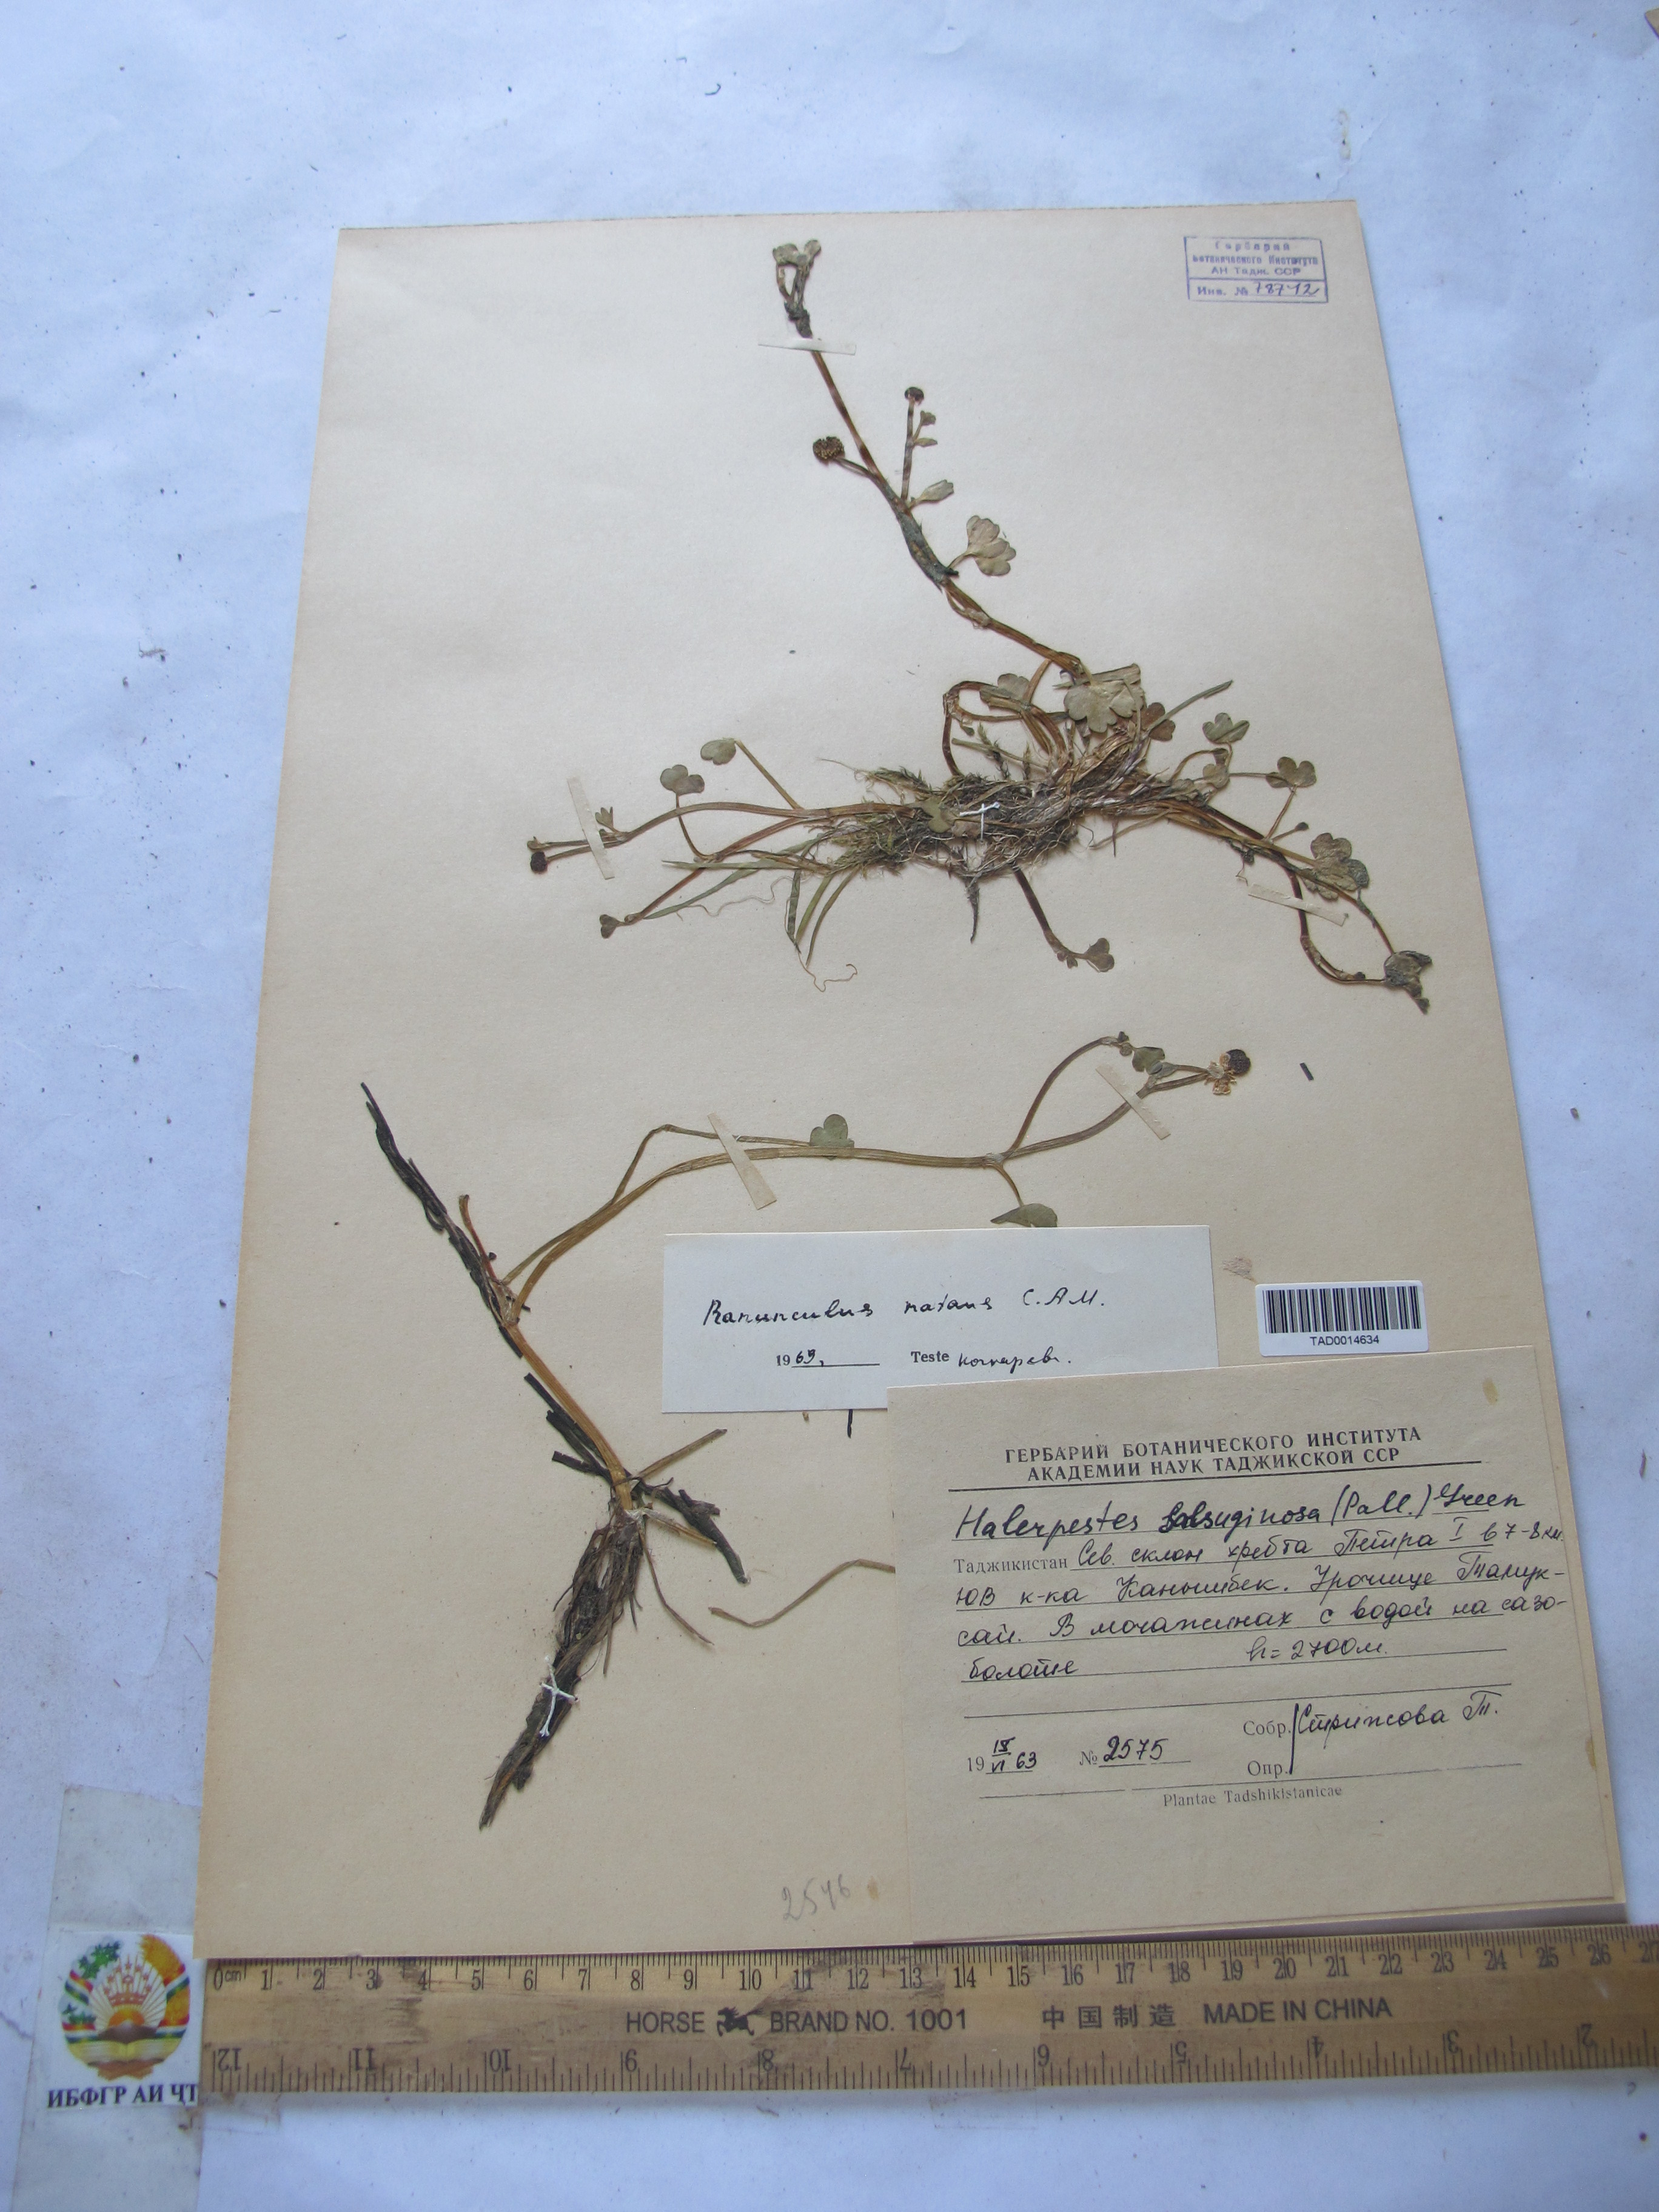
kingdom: Plantae
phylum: Tracheophyta
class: Magnoliopsida
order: Ranunculales
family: Ranunculaceae
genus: Ranunculus
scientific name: Ranunculus natans
